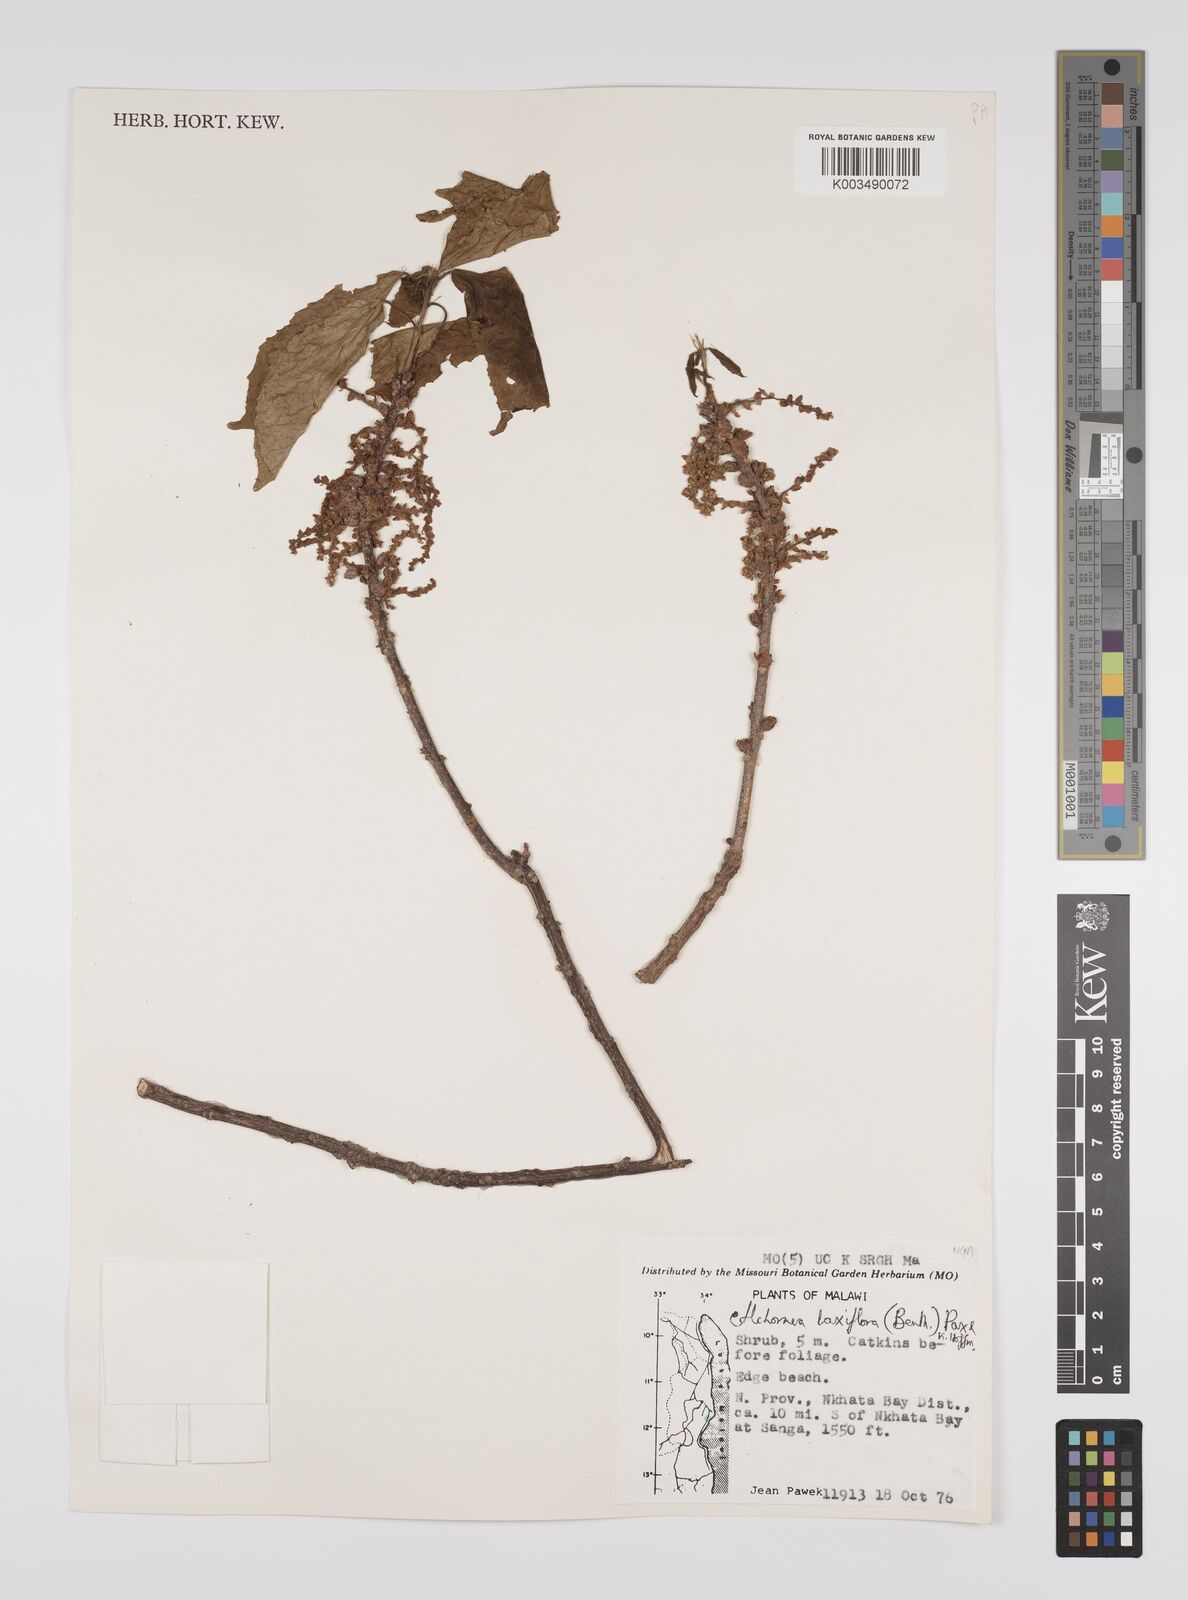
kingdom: Plantae
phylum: Tracheophyta
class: Magnoliopsida
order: Malpighiales
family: Euphorbiaceae
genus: Alchornea
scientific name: Alchornea laxiflora
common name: Lowveld bead-string
